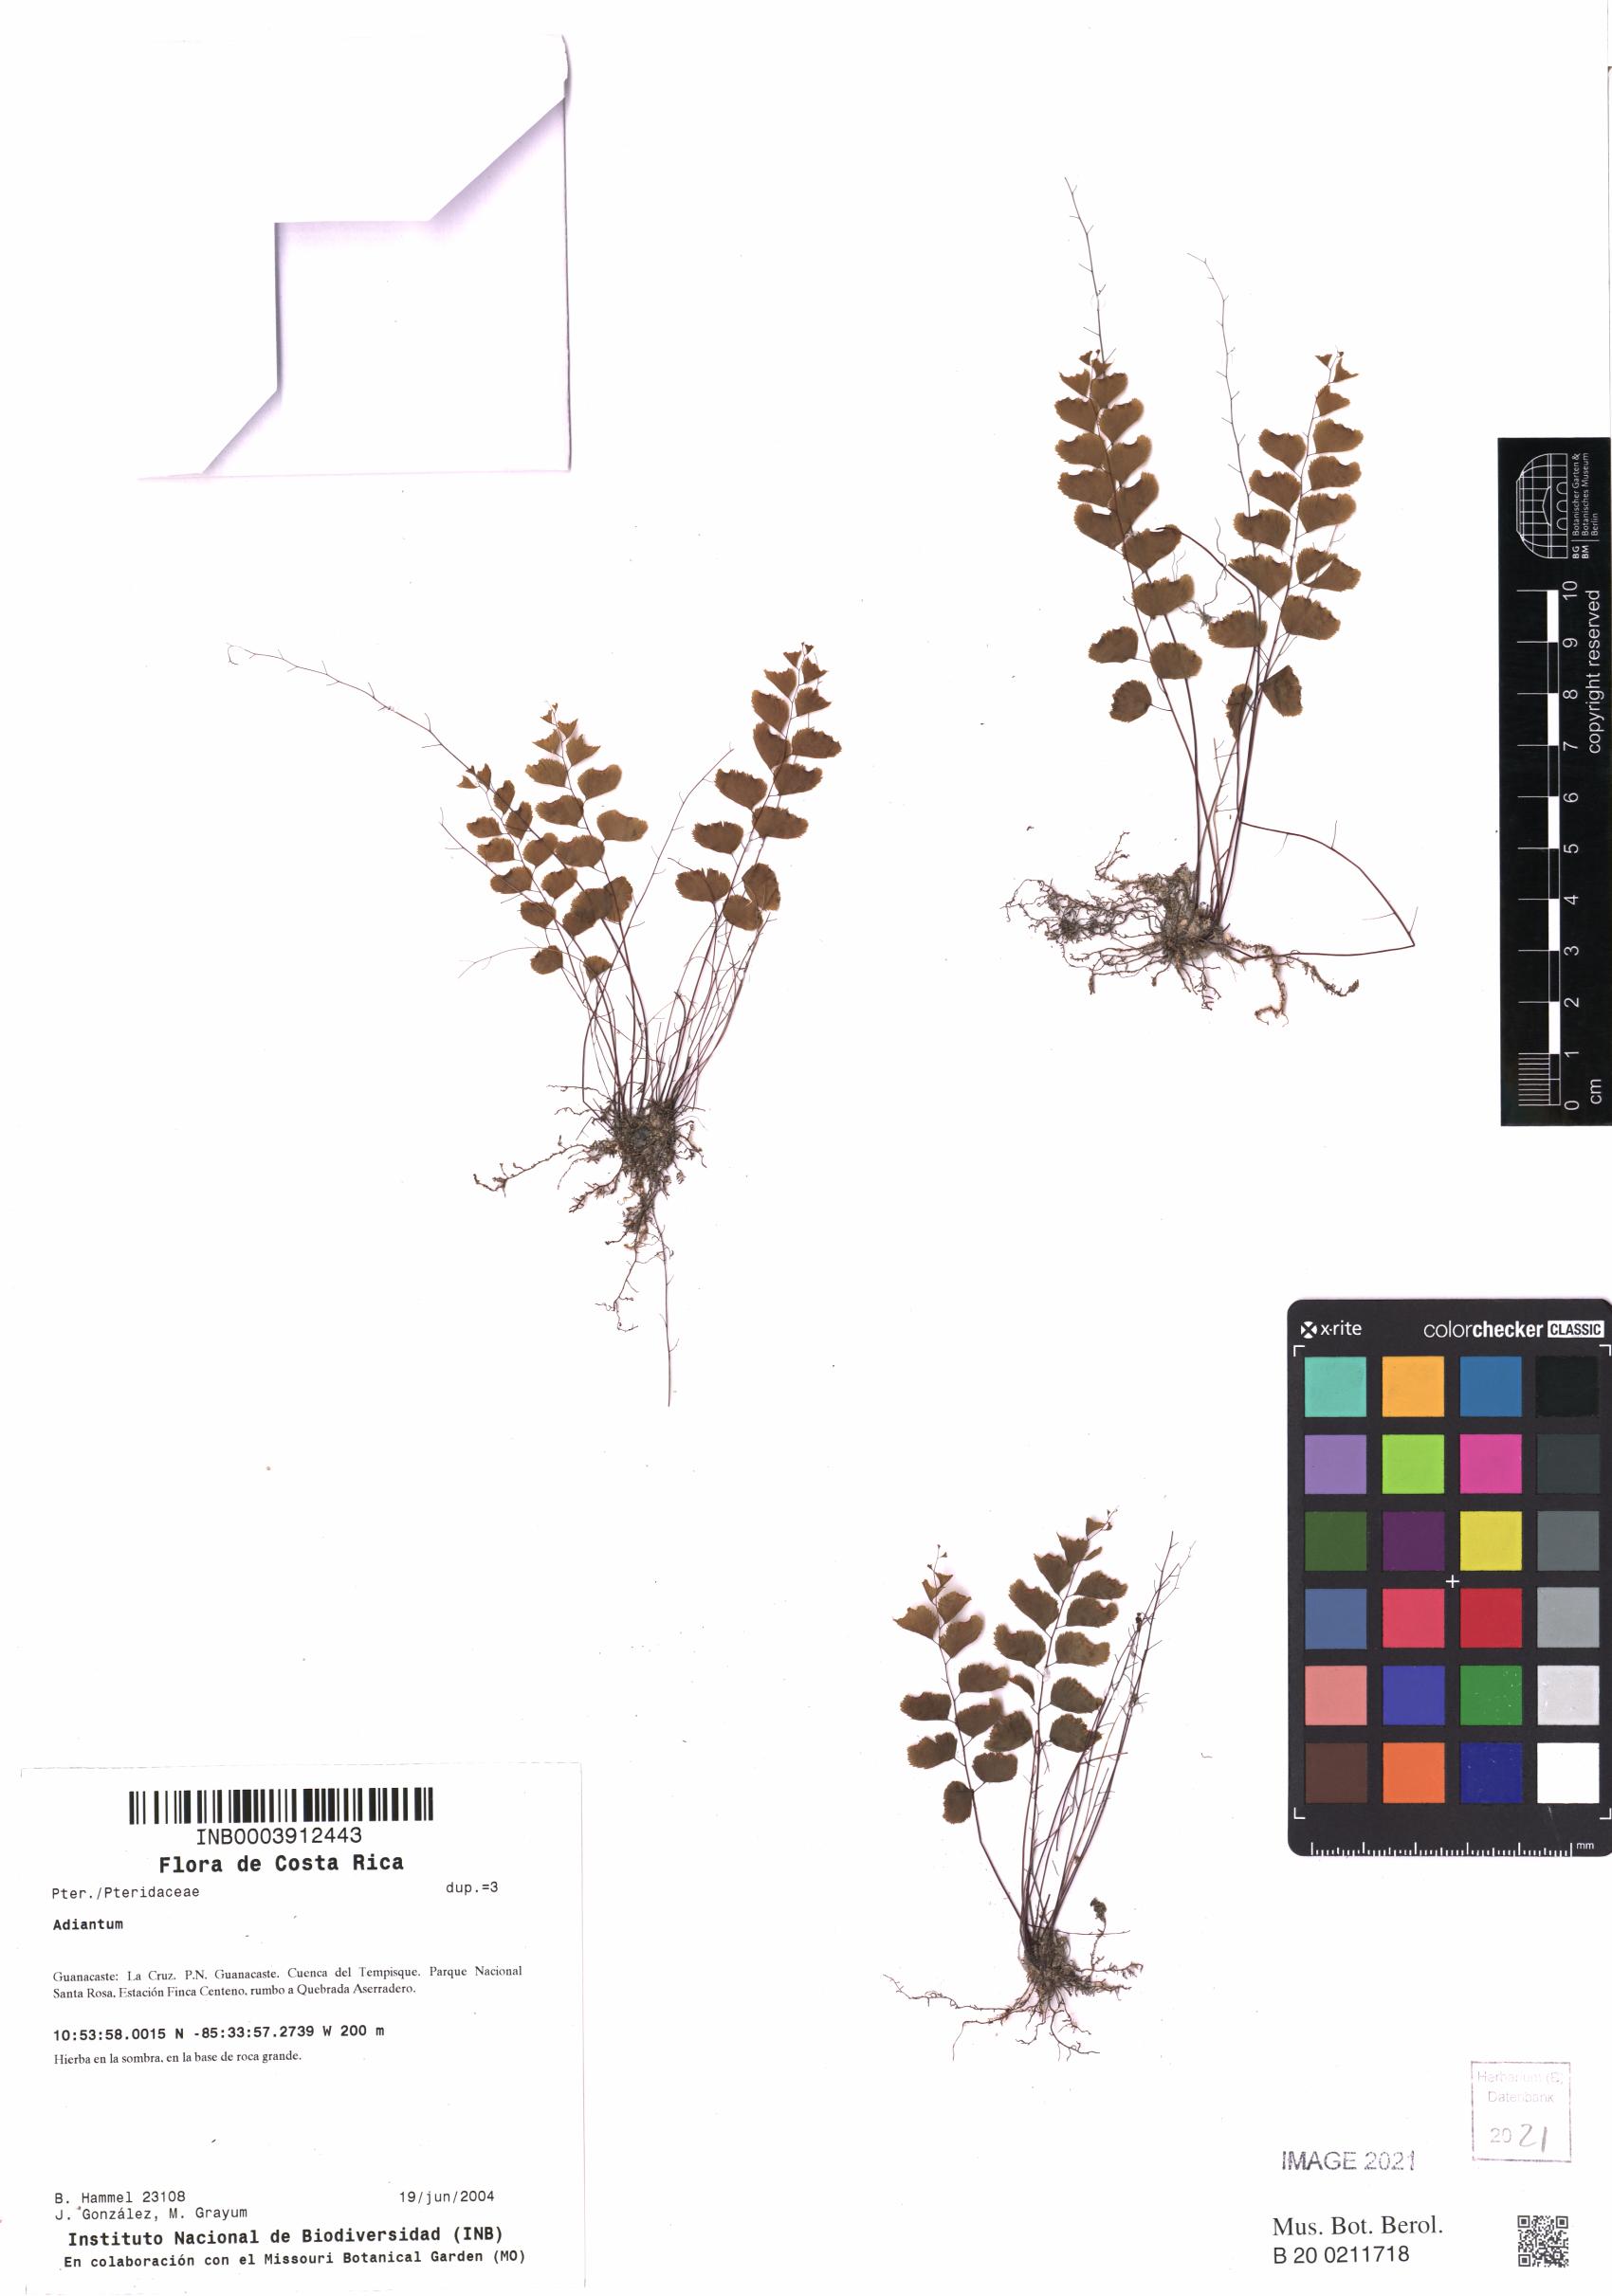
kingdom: Plantae
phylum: Tracheophyta
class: Polypodiopsida
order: Polypodiales
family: Pteridaceae
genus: Adiantum
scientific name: Adiantum
